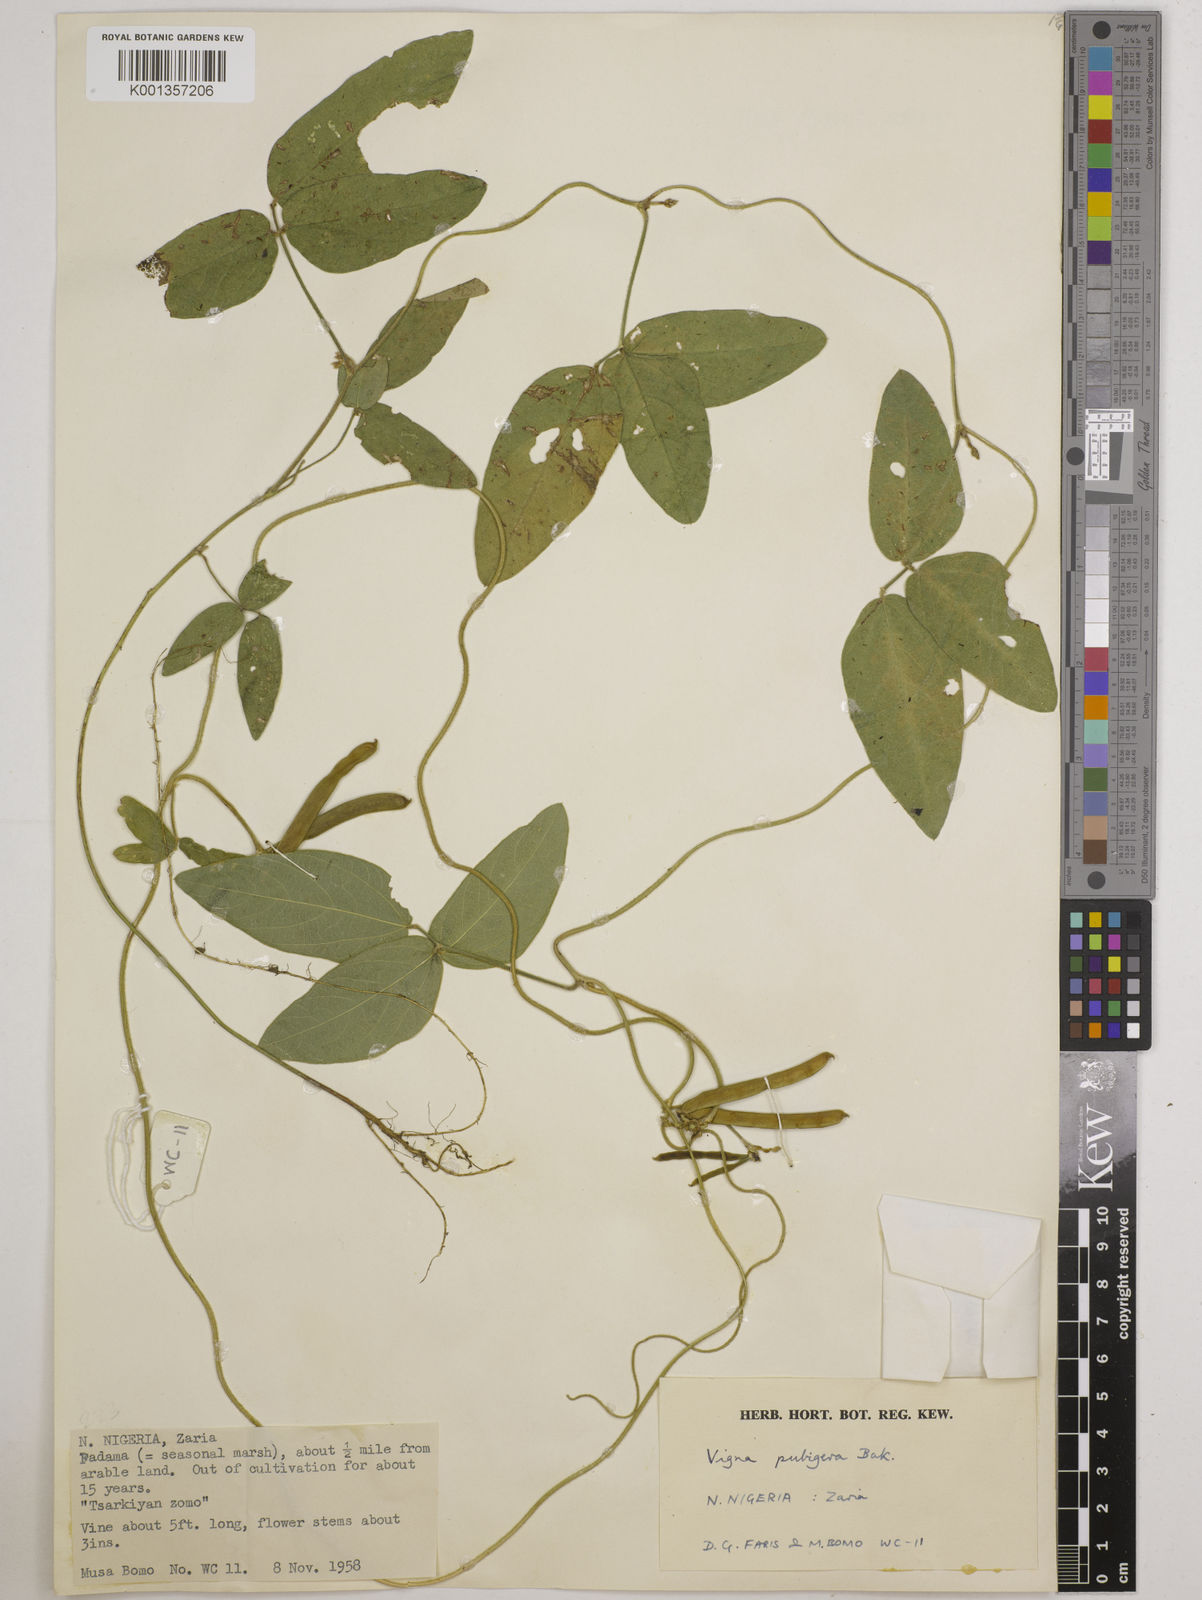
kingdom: Plantae
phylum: Tracheophyta
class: Magnoliopsida
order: Fabales
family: Fabaceae
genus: Vigna
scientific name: Vigna ambacensis
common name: Tsarkiyan zomo
